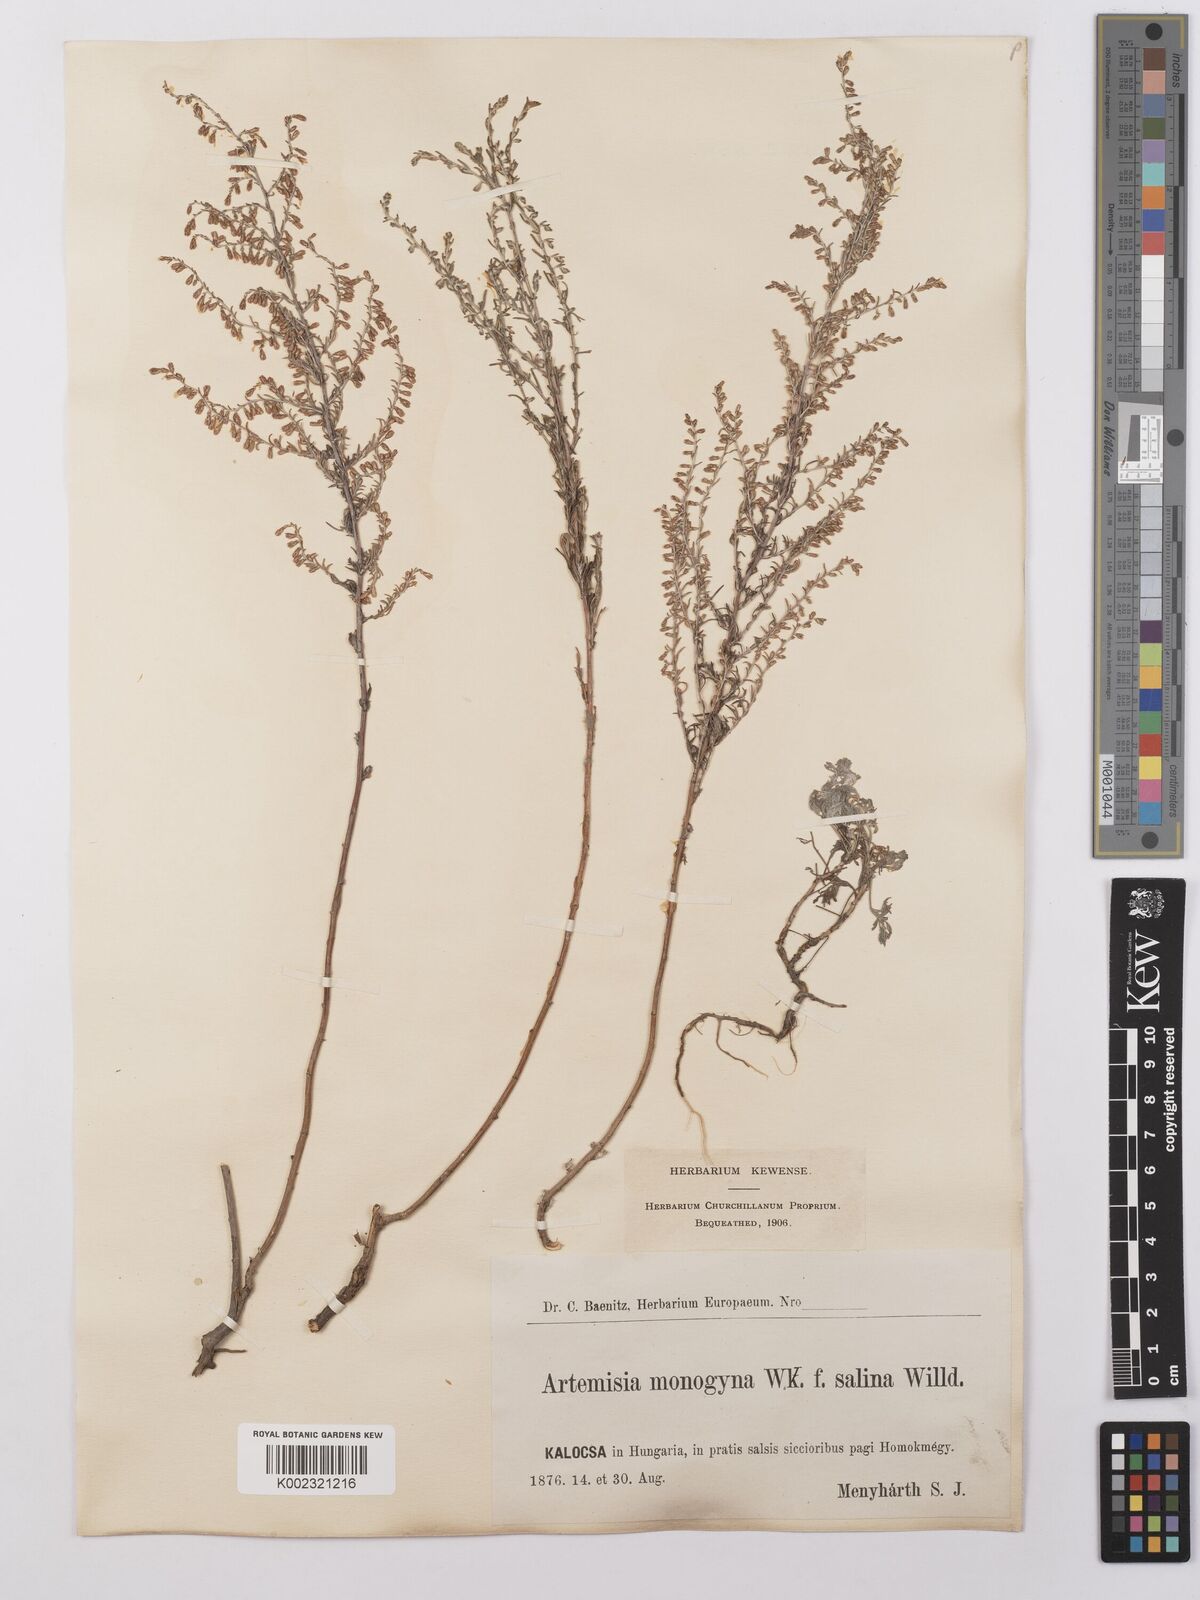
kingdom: Plantae
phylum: Tracheophyta
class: Magnoliopsida
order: Asterales
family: Asteraceae
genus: Artemisia
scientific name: Artemisia maritima
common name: Wormseed
